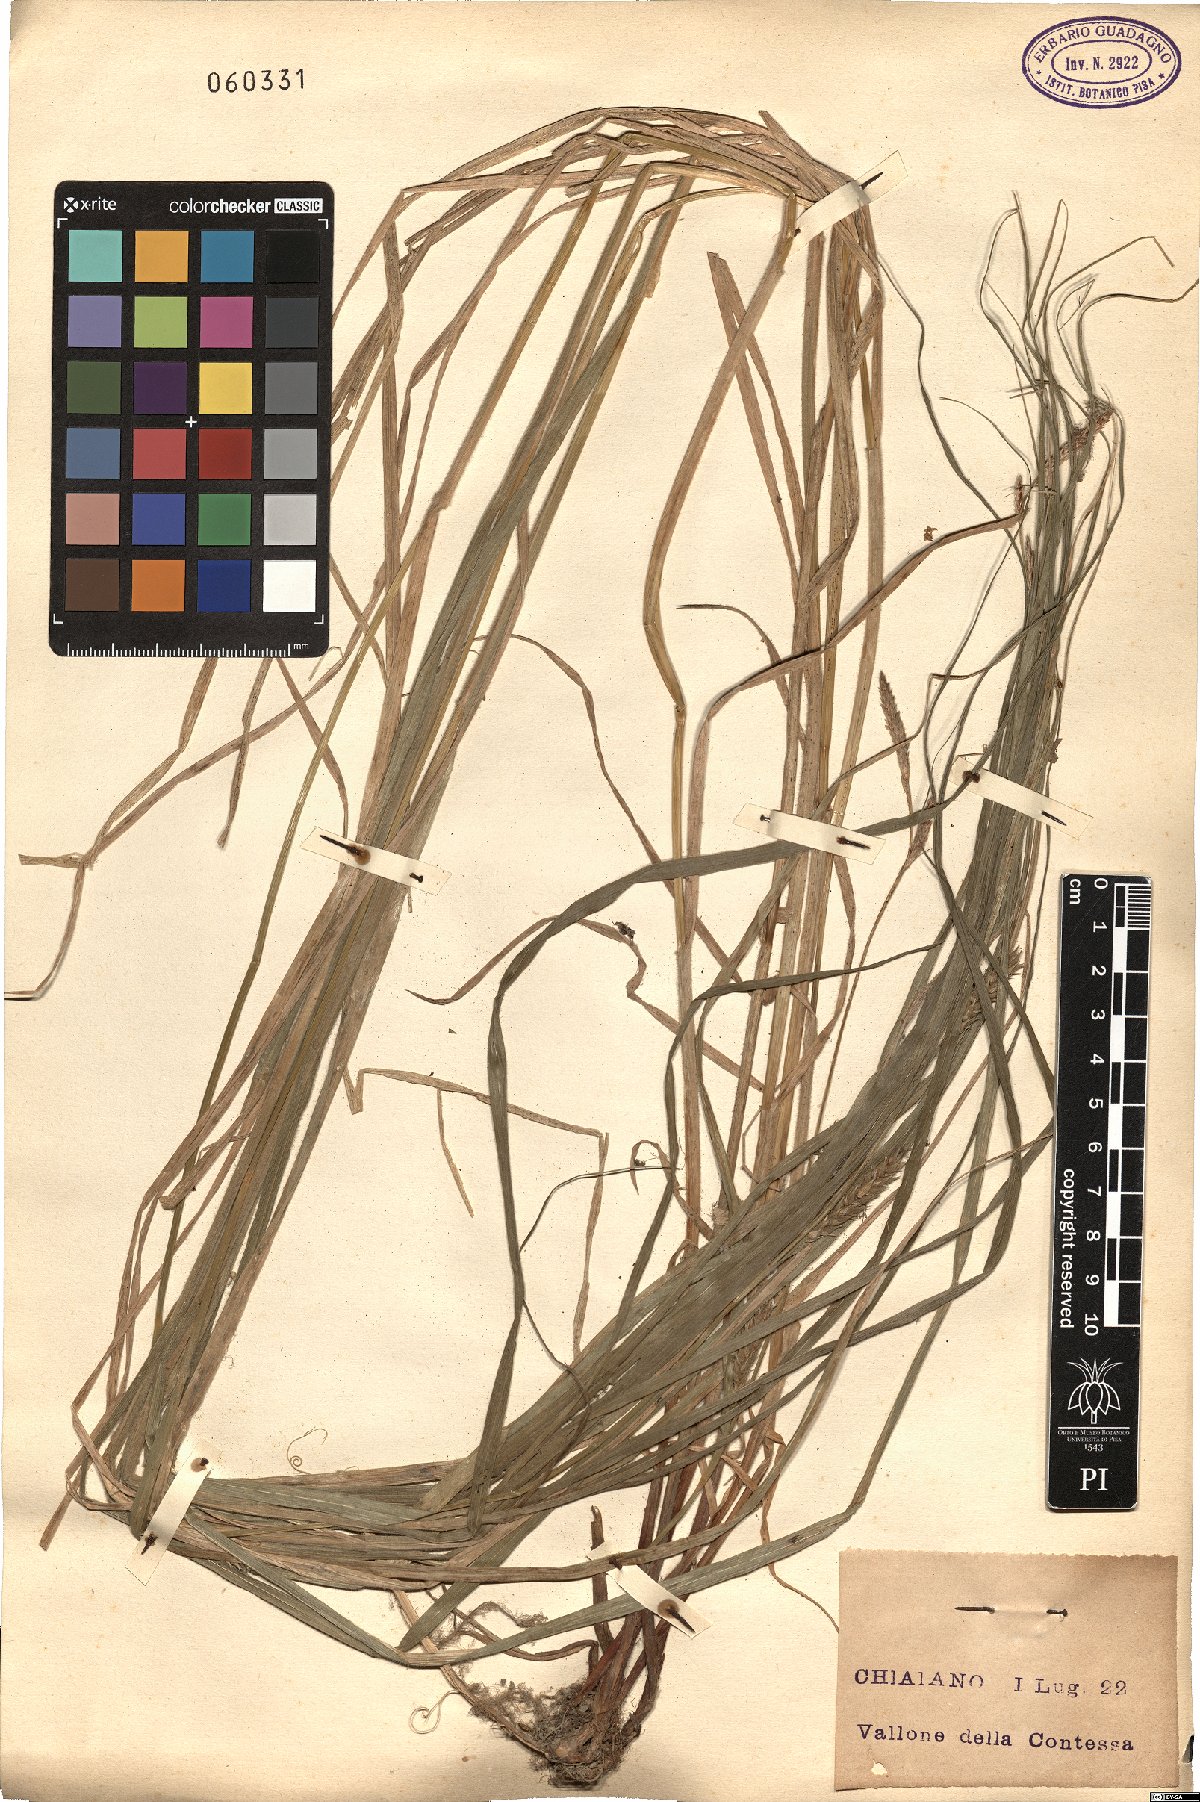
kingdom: Plantae
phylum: Tracheophyta
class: Liliopsida
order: Poales
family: Cyperaceae
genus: Carex
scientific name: Carex hirta
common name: Hairy sedge
